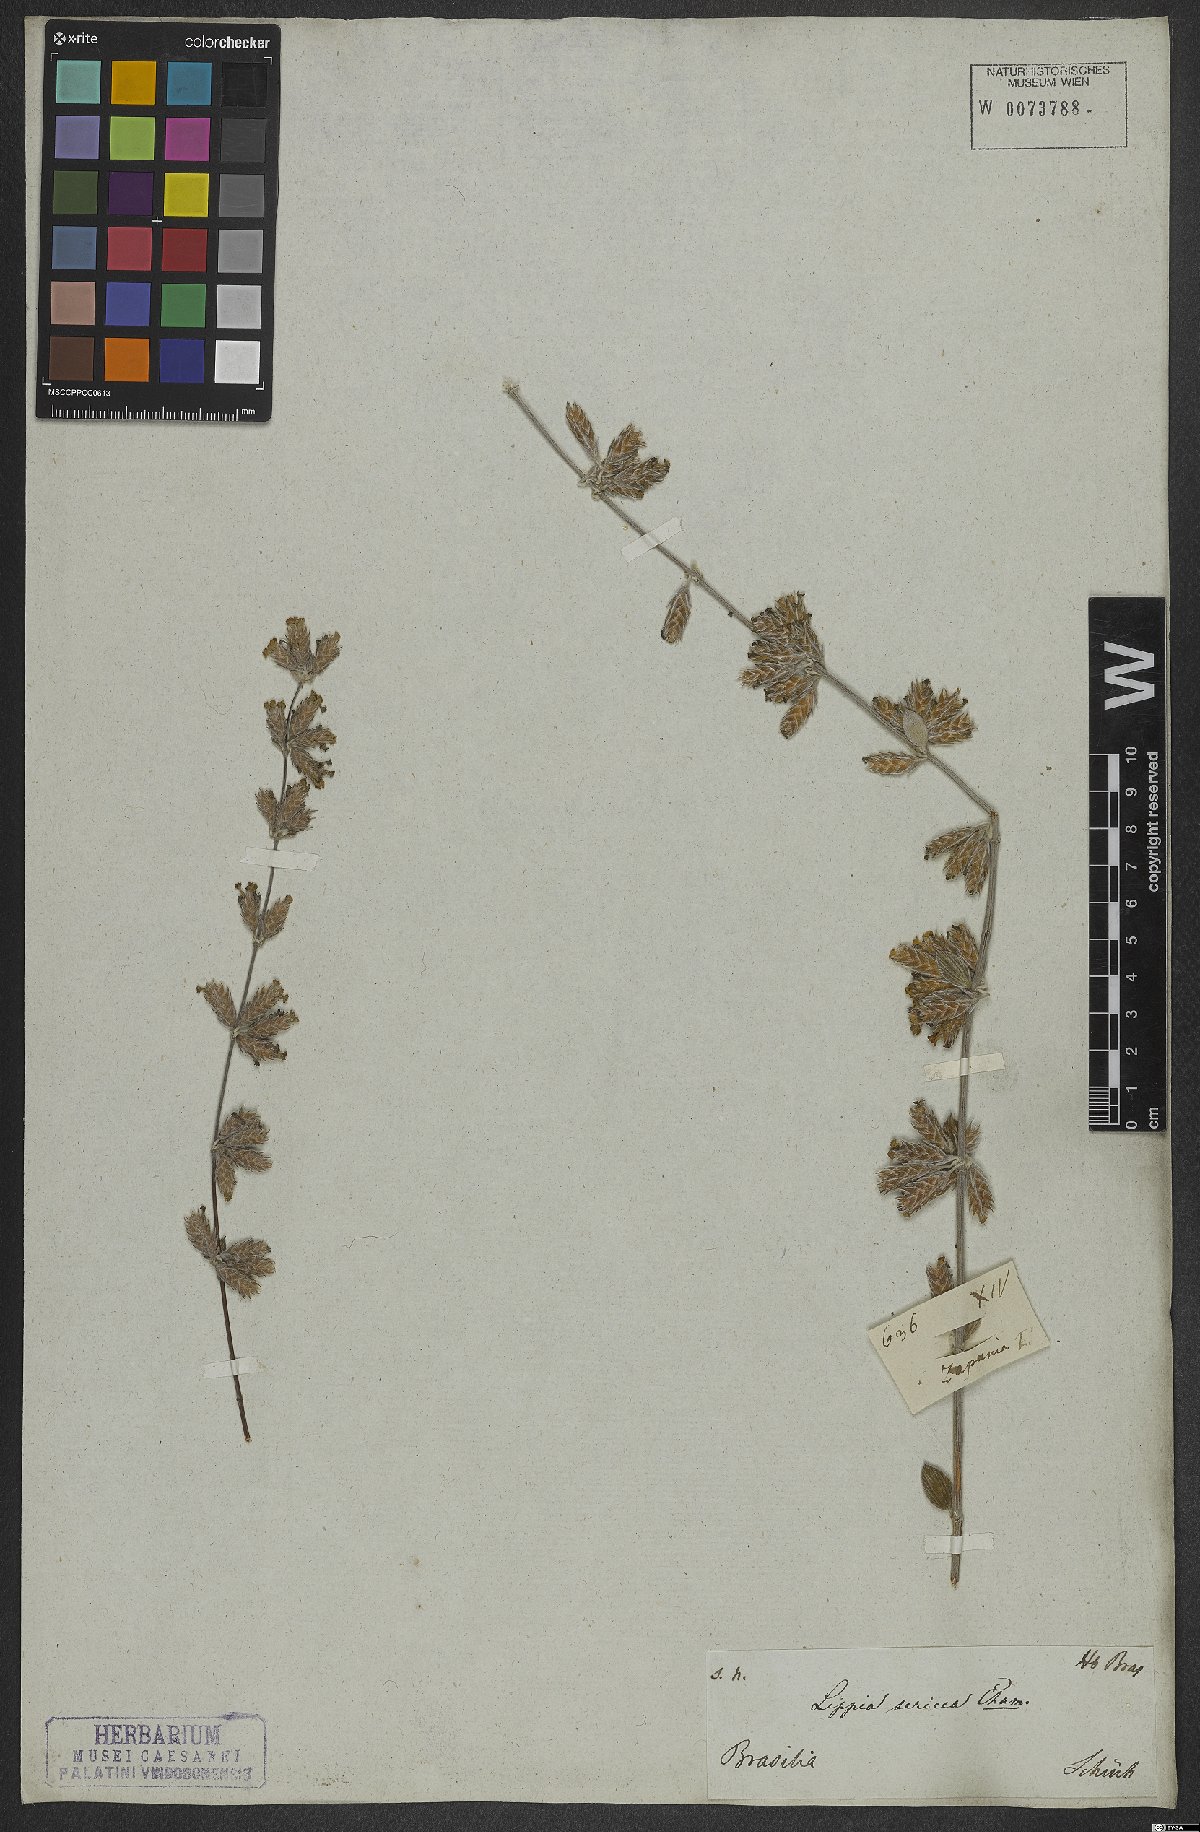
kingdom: Plantae
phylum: Tracheophyta
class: Magnoliopsida
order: Lamiales
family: Verbenaceae
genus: Lippia
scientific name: Lippia sericea
